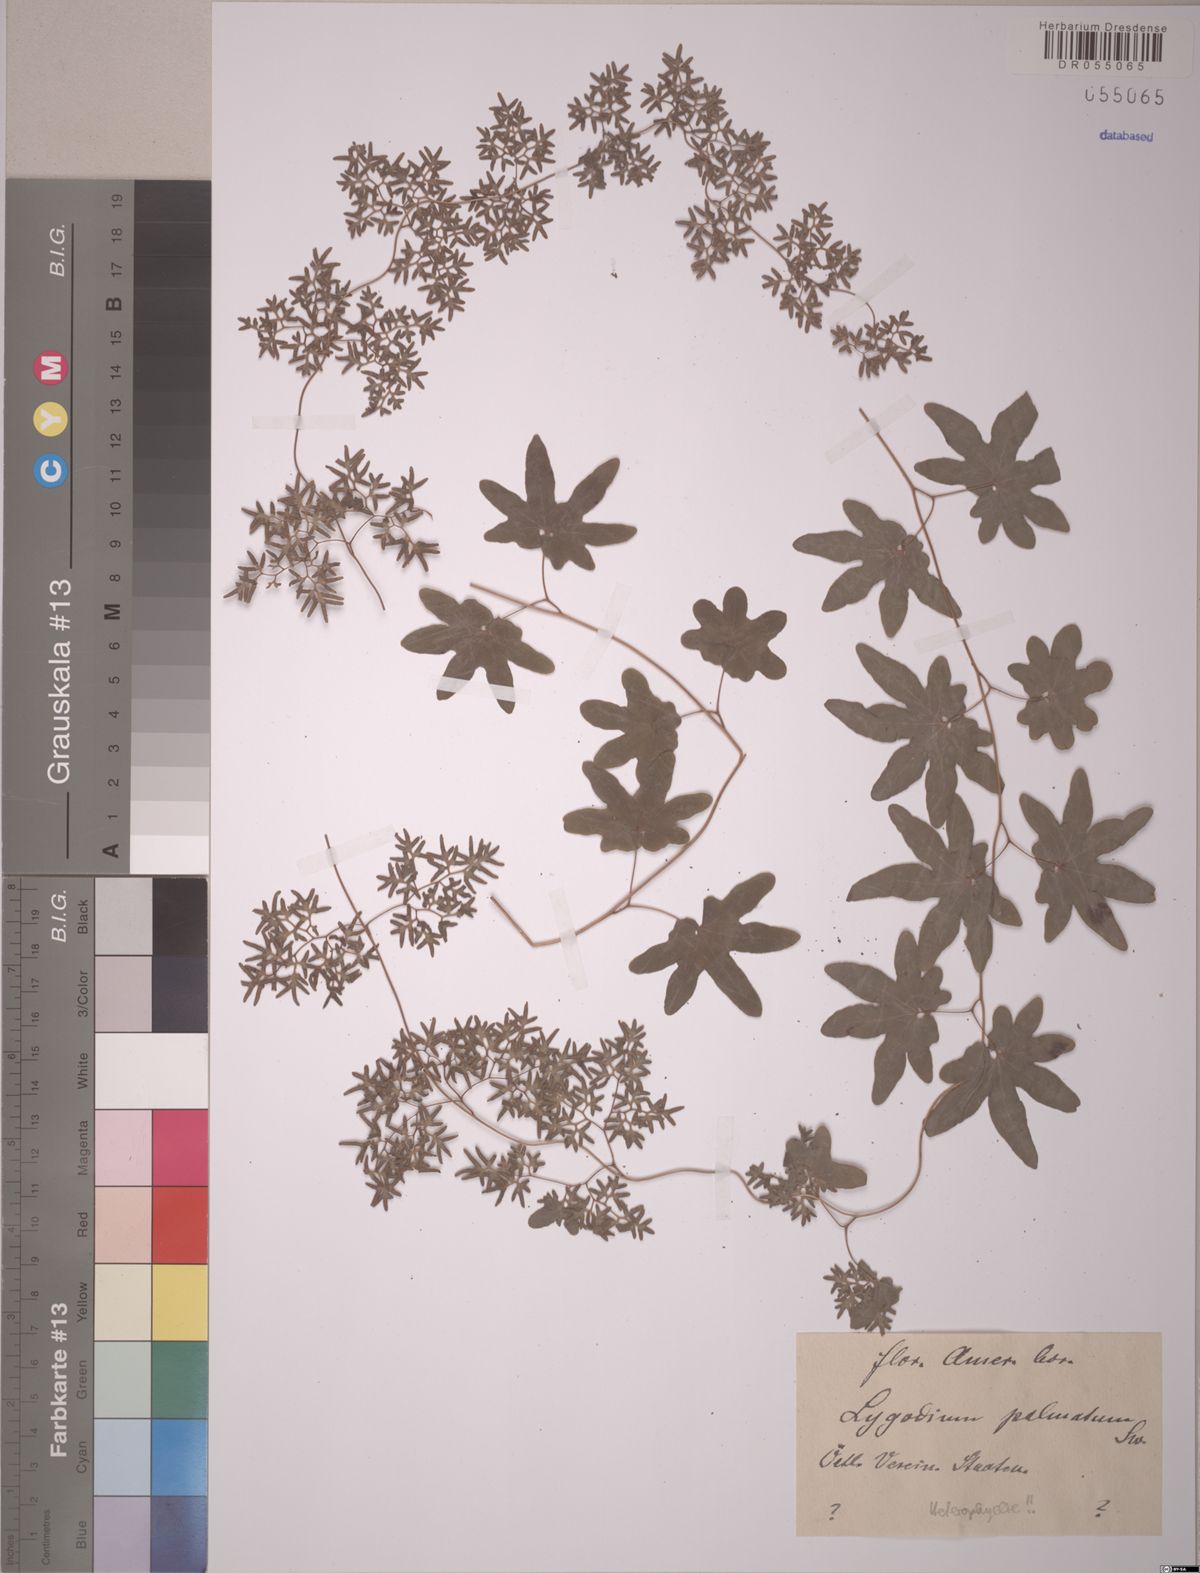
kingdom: Plantae
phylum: Tracheophyta
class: Polypodiopsida
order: Schizaeales
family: Lygodiaceae
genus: Lygodium
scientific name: Lygodium palmatum
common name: American climbing fern
